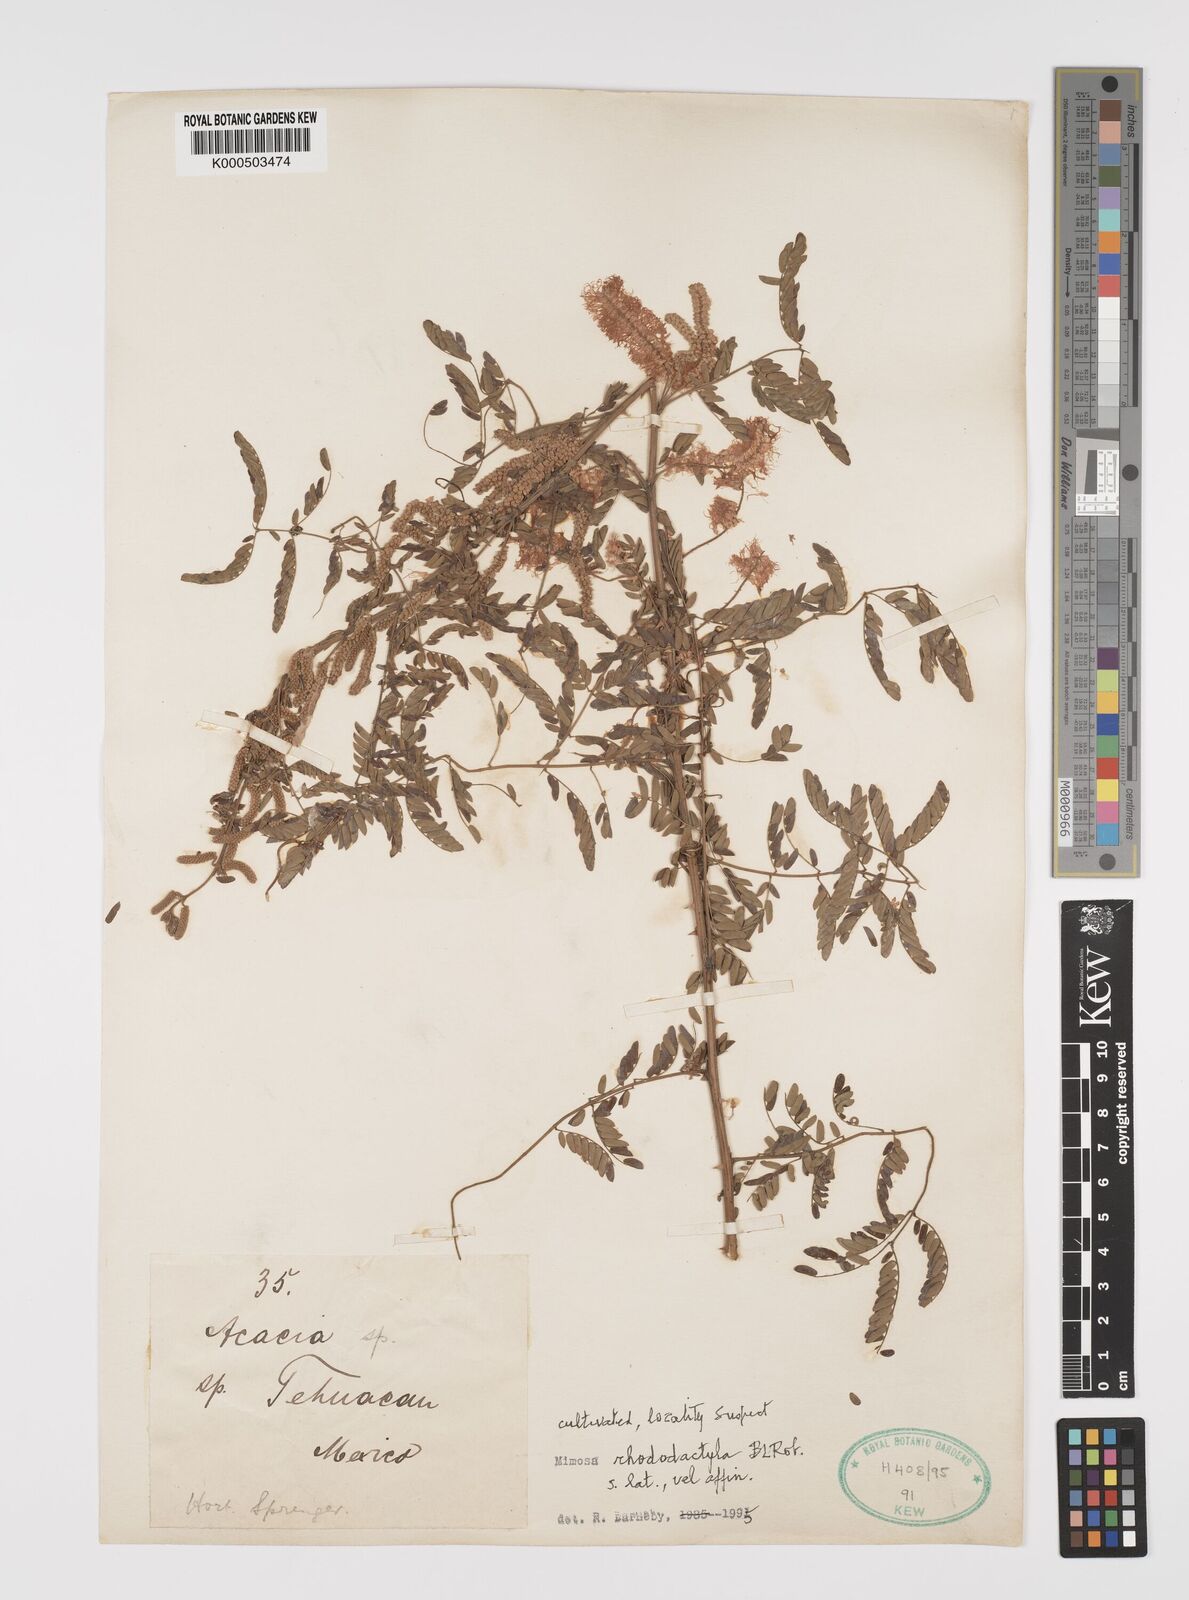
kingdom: Plantae
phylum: Tracheophyta
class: Magnoliopsida
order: Fabales
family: Fabaceae
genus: Mimosa
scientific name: Mimosa rhododactyla
